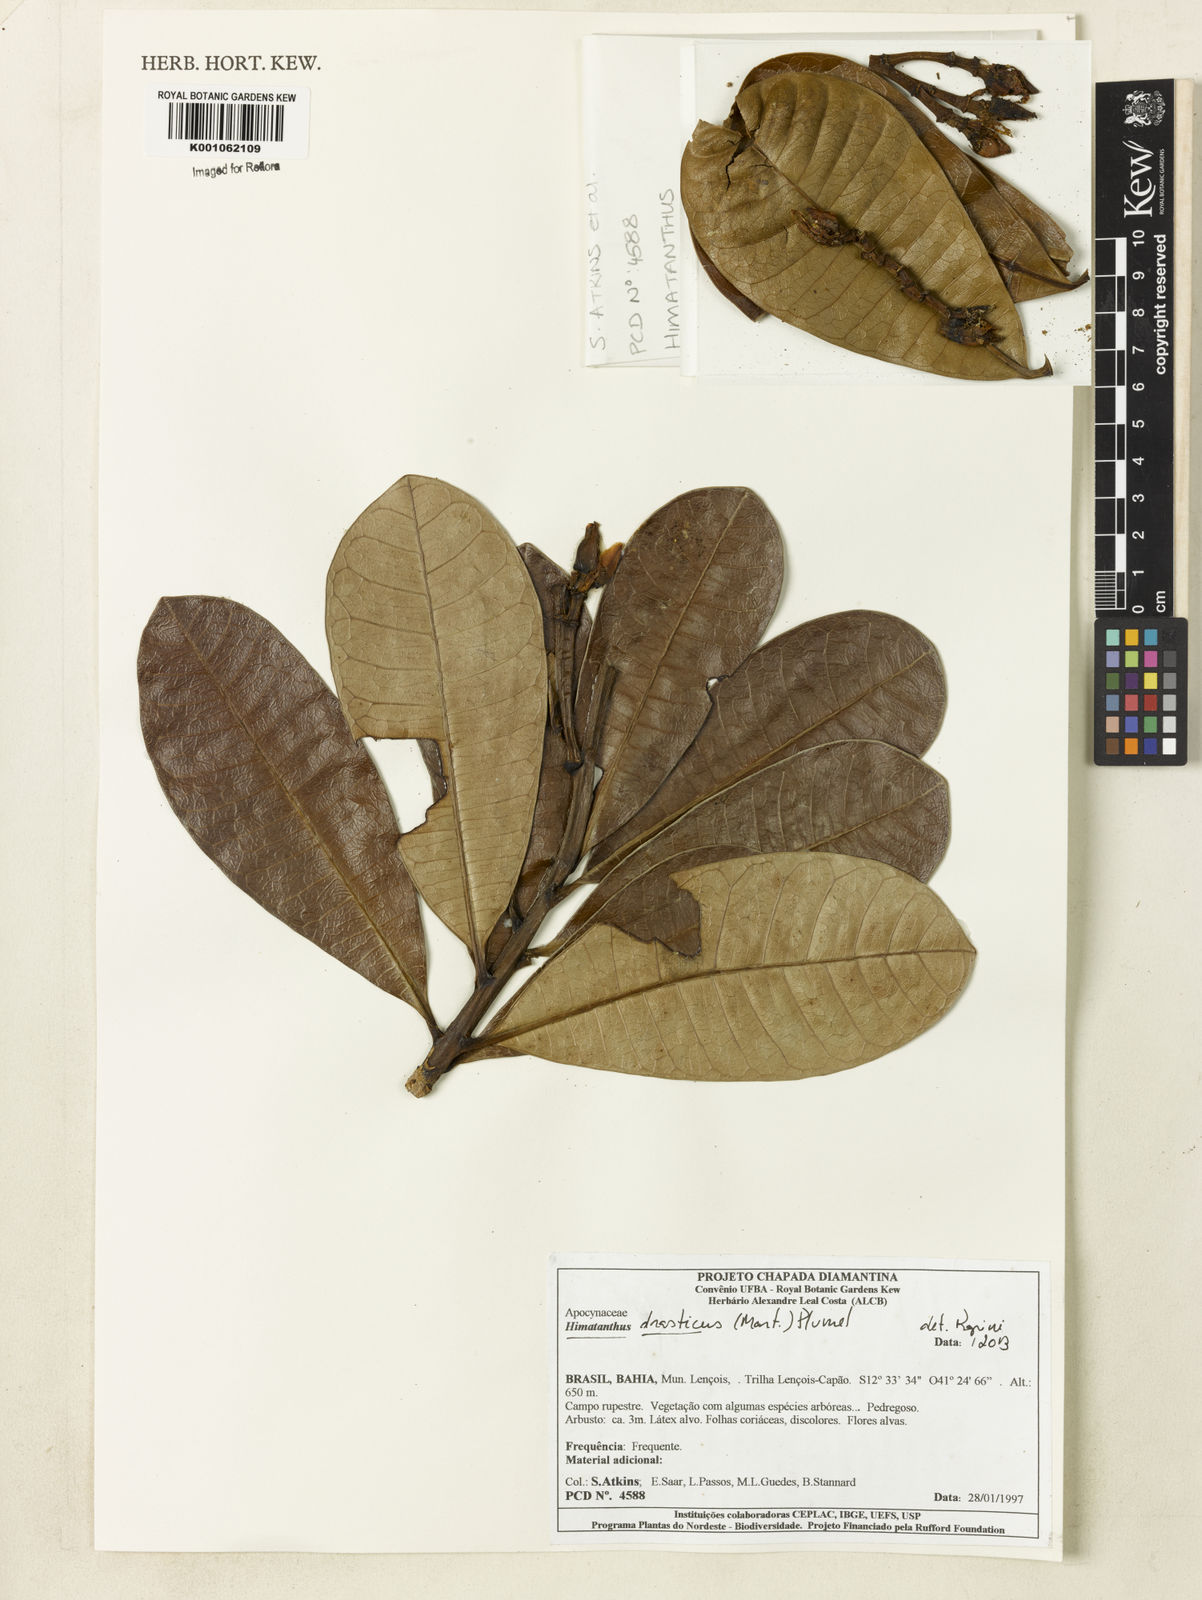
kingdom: Plantae
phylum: Tracheophyta
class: Magnoliopsida
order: Gentianales
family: Apocynaceae
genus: Himatanthus
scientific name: Himatanthus drasticus
